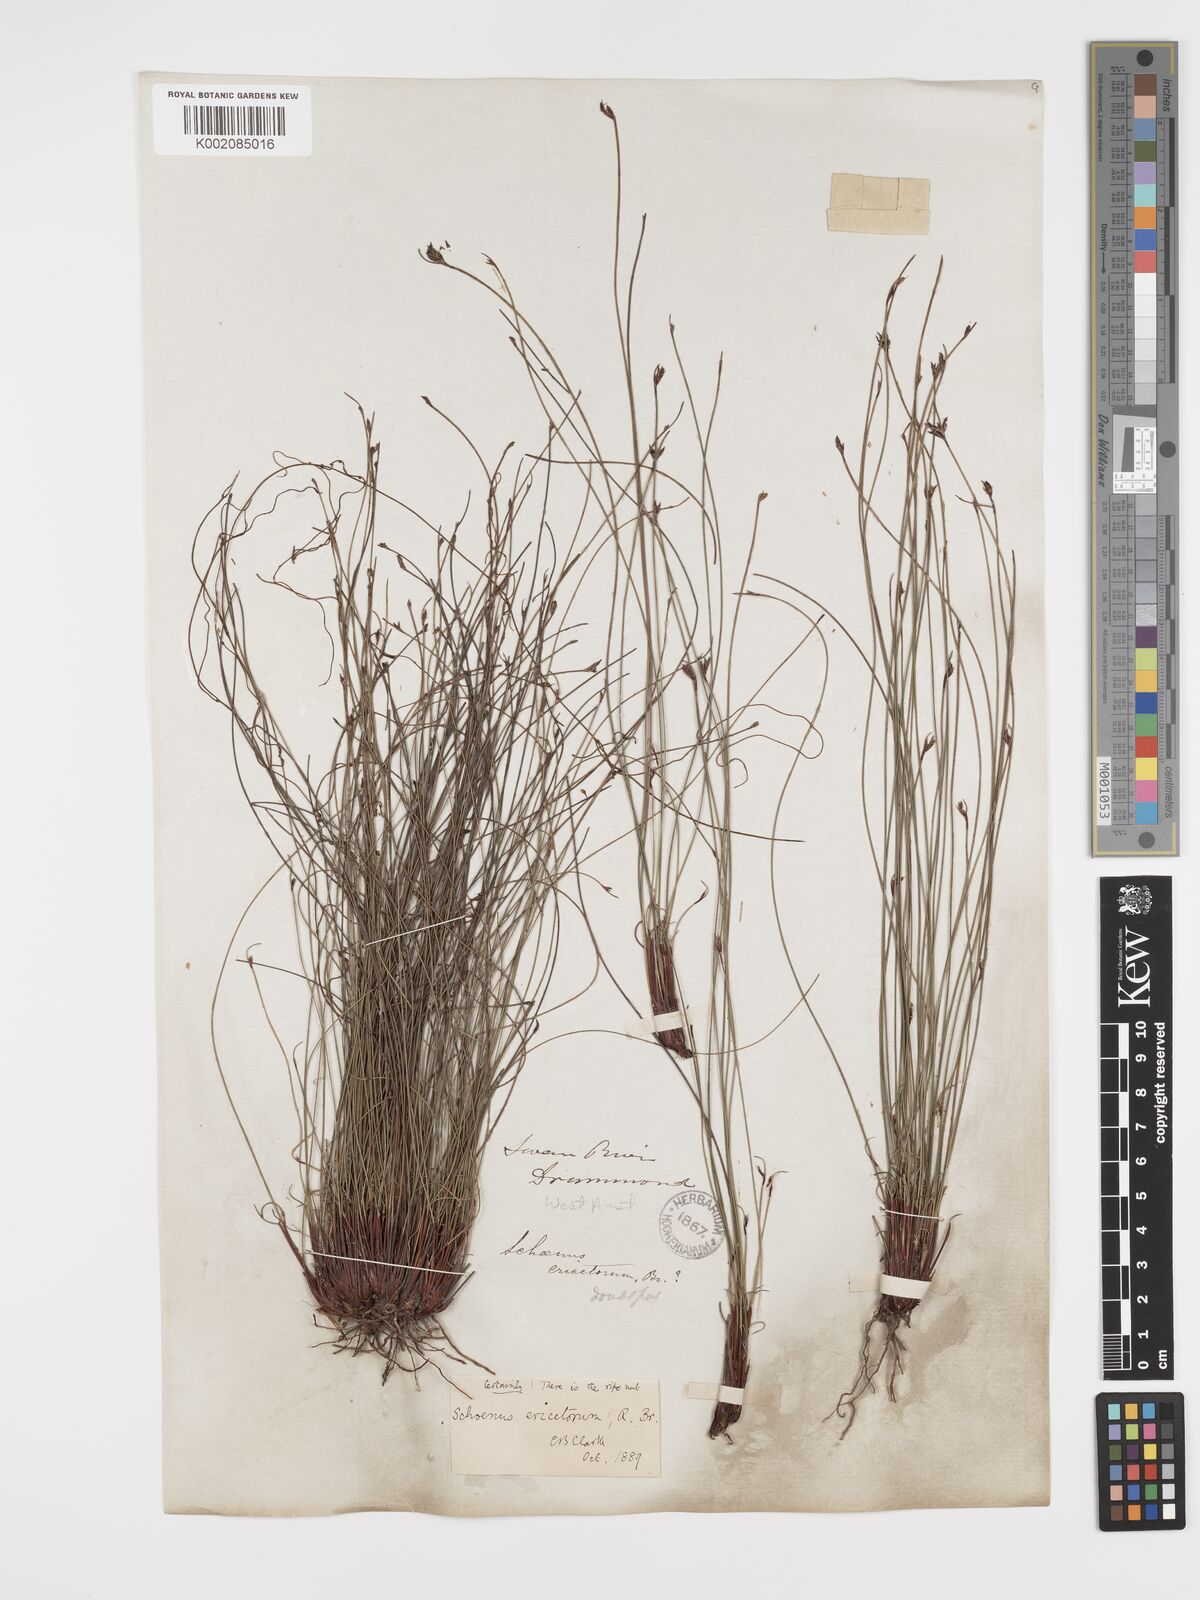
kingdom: Plantae
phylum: Tracheophyta
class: Liliopsida
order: Poales
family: Cyperaceae
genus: Schoenus
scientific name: Schoenus ericetorum
